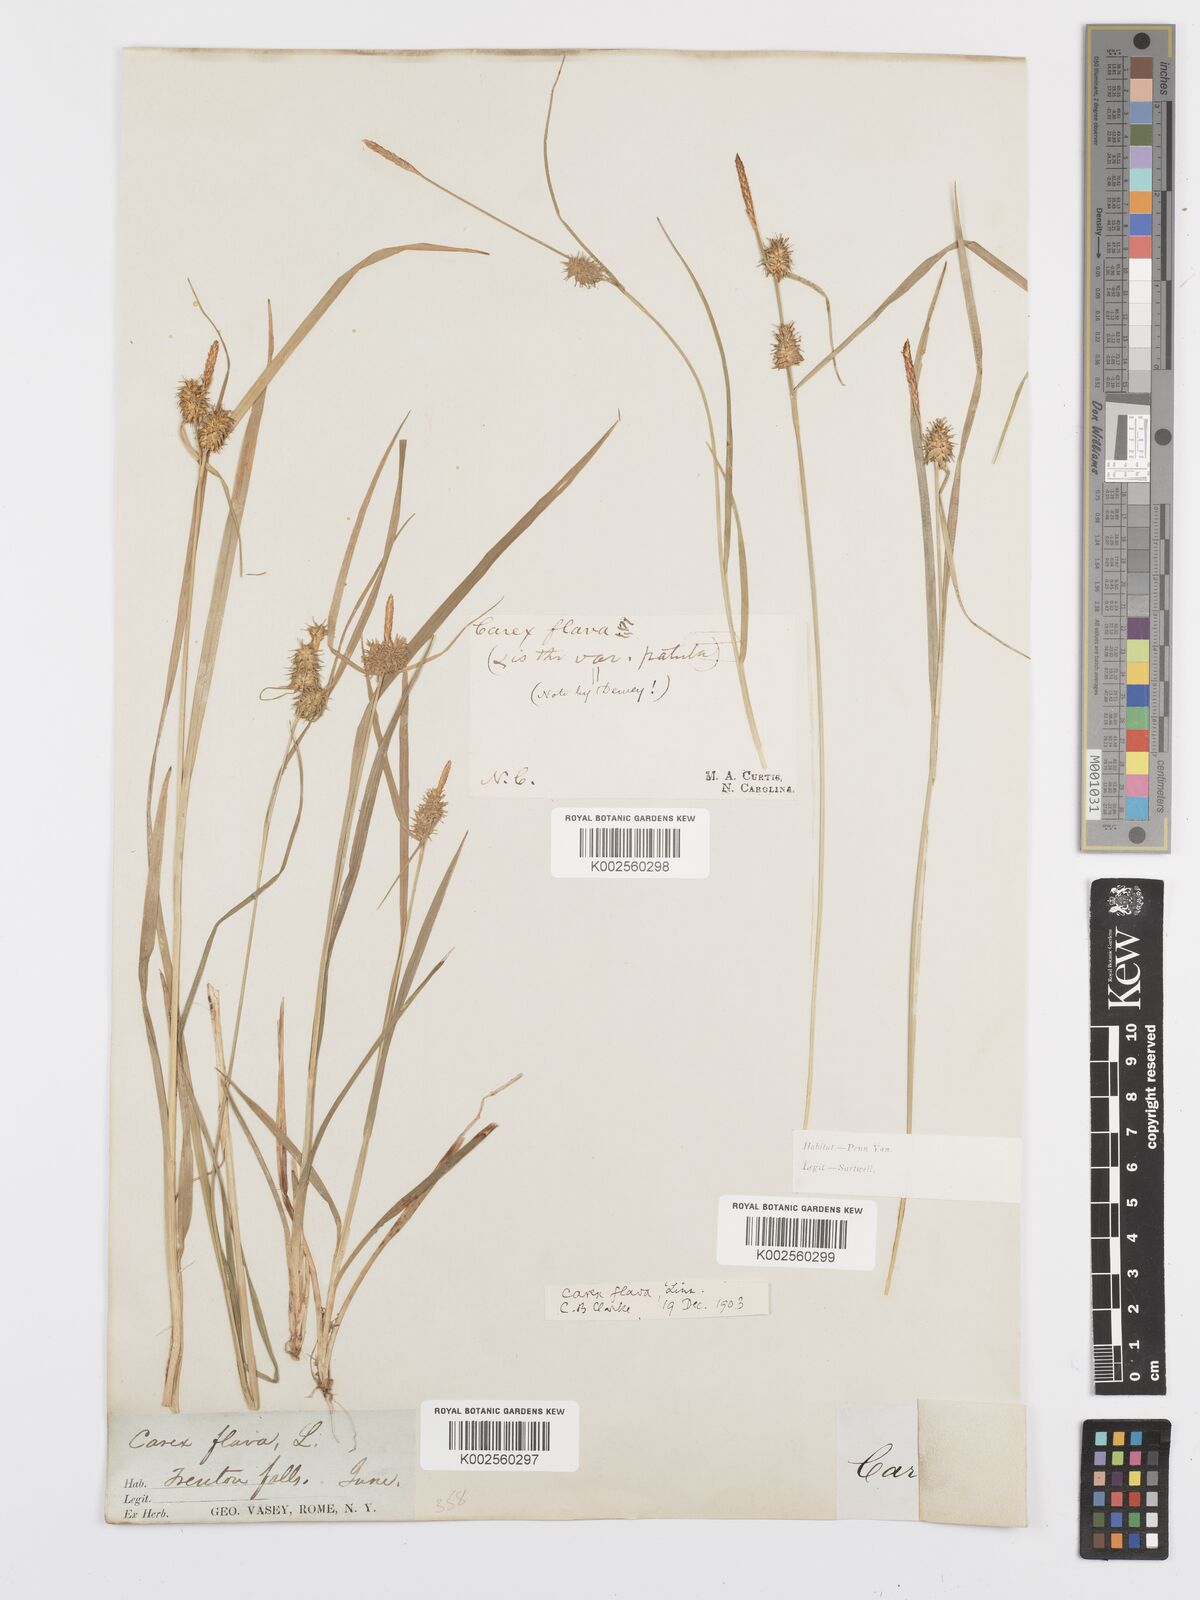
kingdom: Plantae
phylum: Tracheophyta
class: Liliopsida
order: Poales
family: Cyperaceae
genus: Carex
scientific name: Carex flava
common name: Large yellow-sedge
